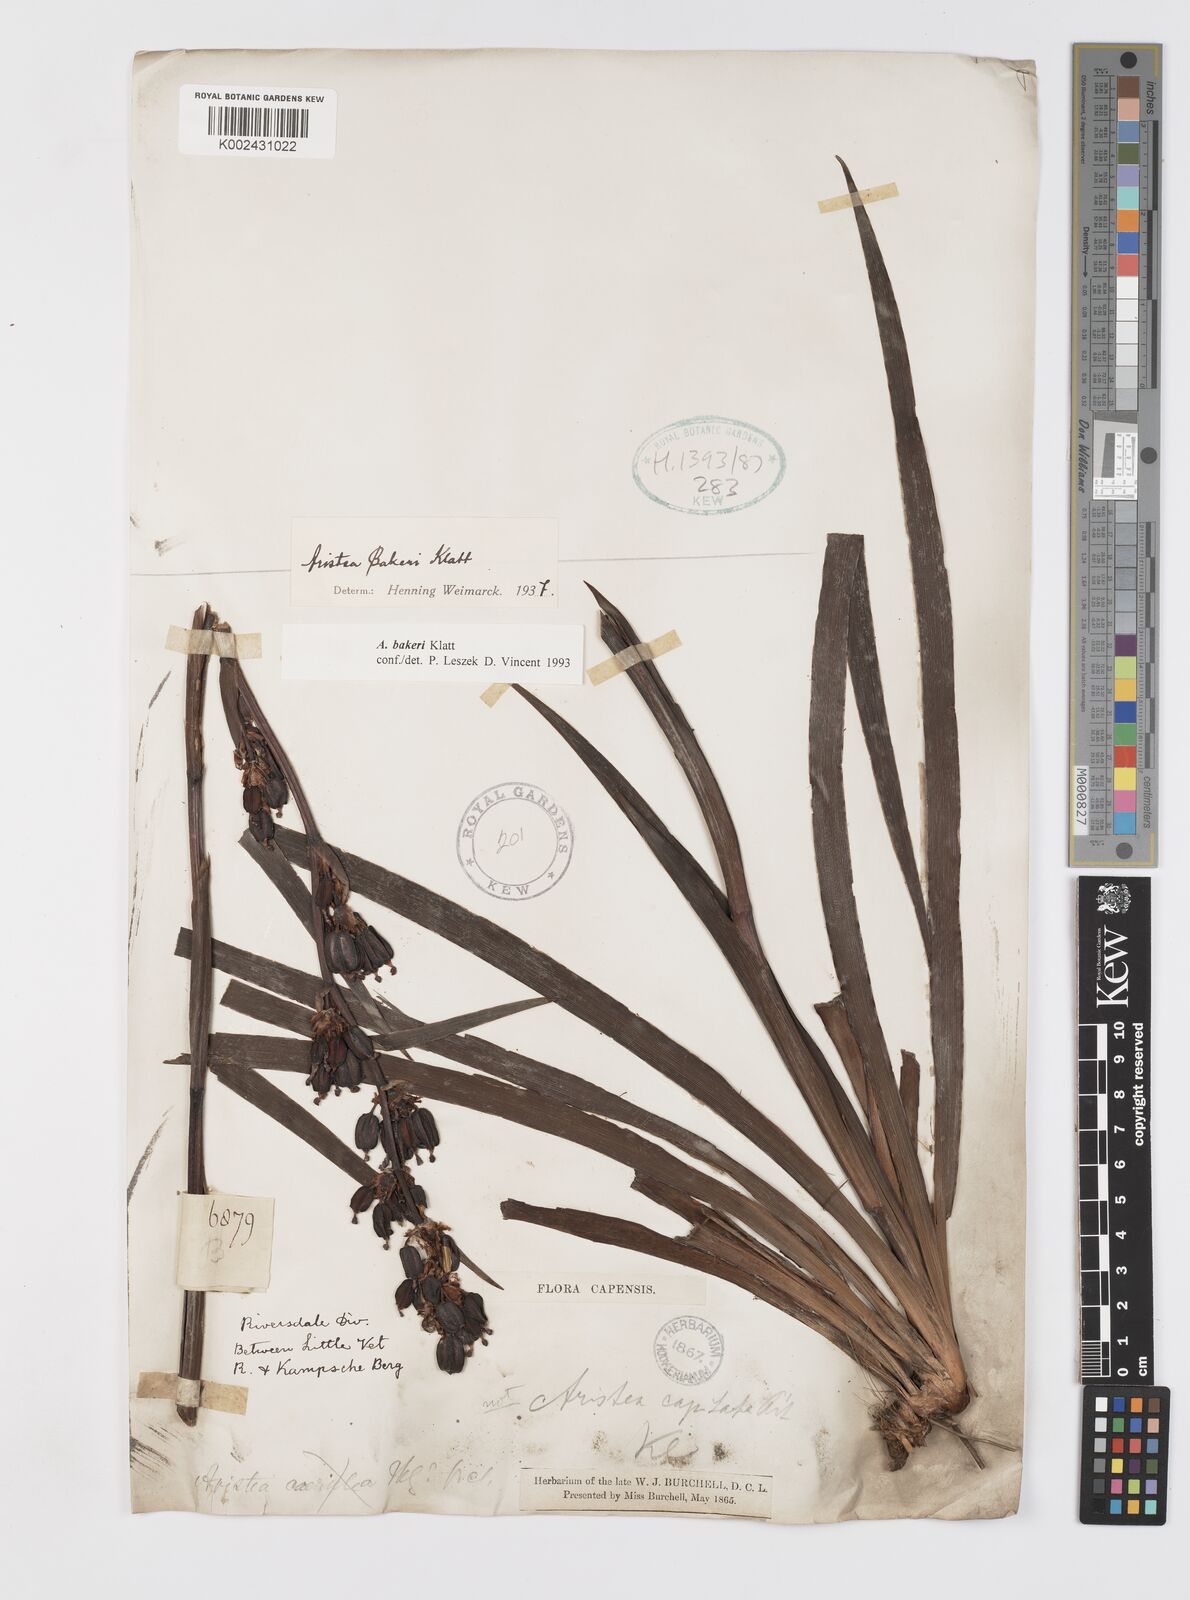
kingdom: Plantae
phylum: Tracheophyta
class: Liliopsida
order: Asparagales
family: Iridaceae
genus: Aristea
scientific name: Aristea capitata
